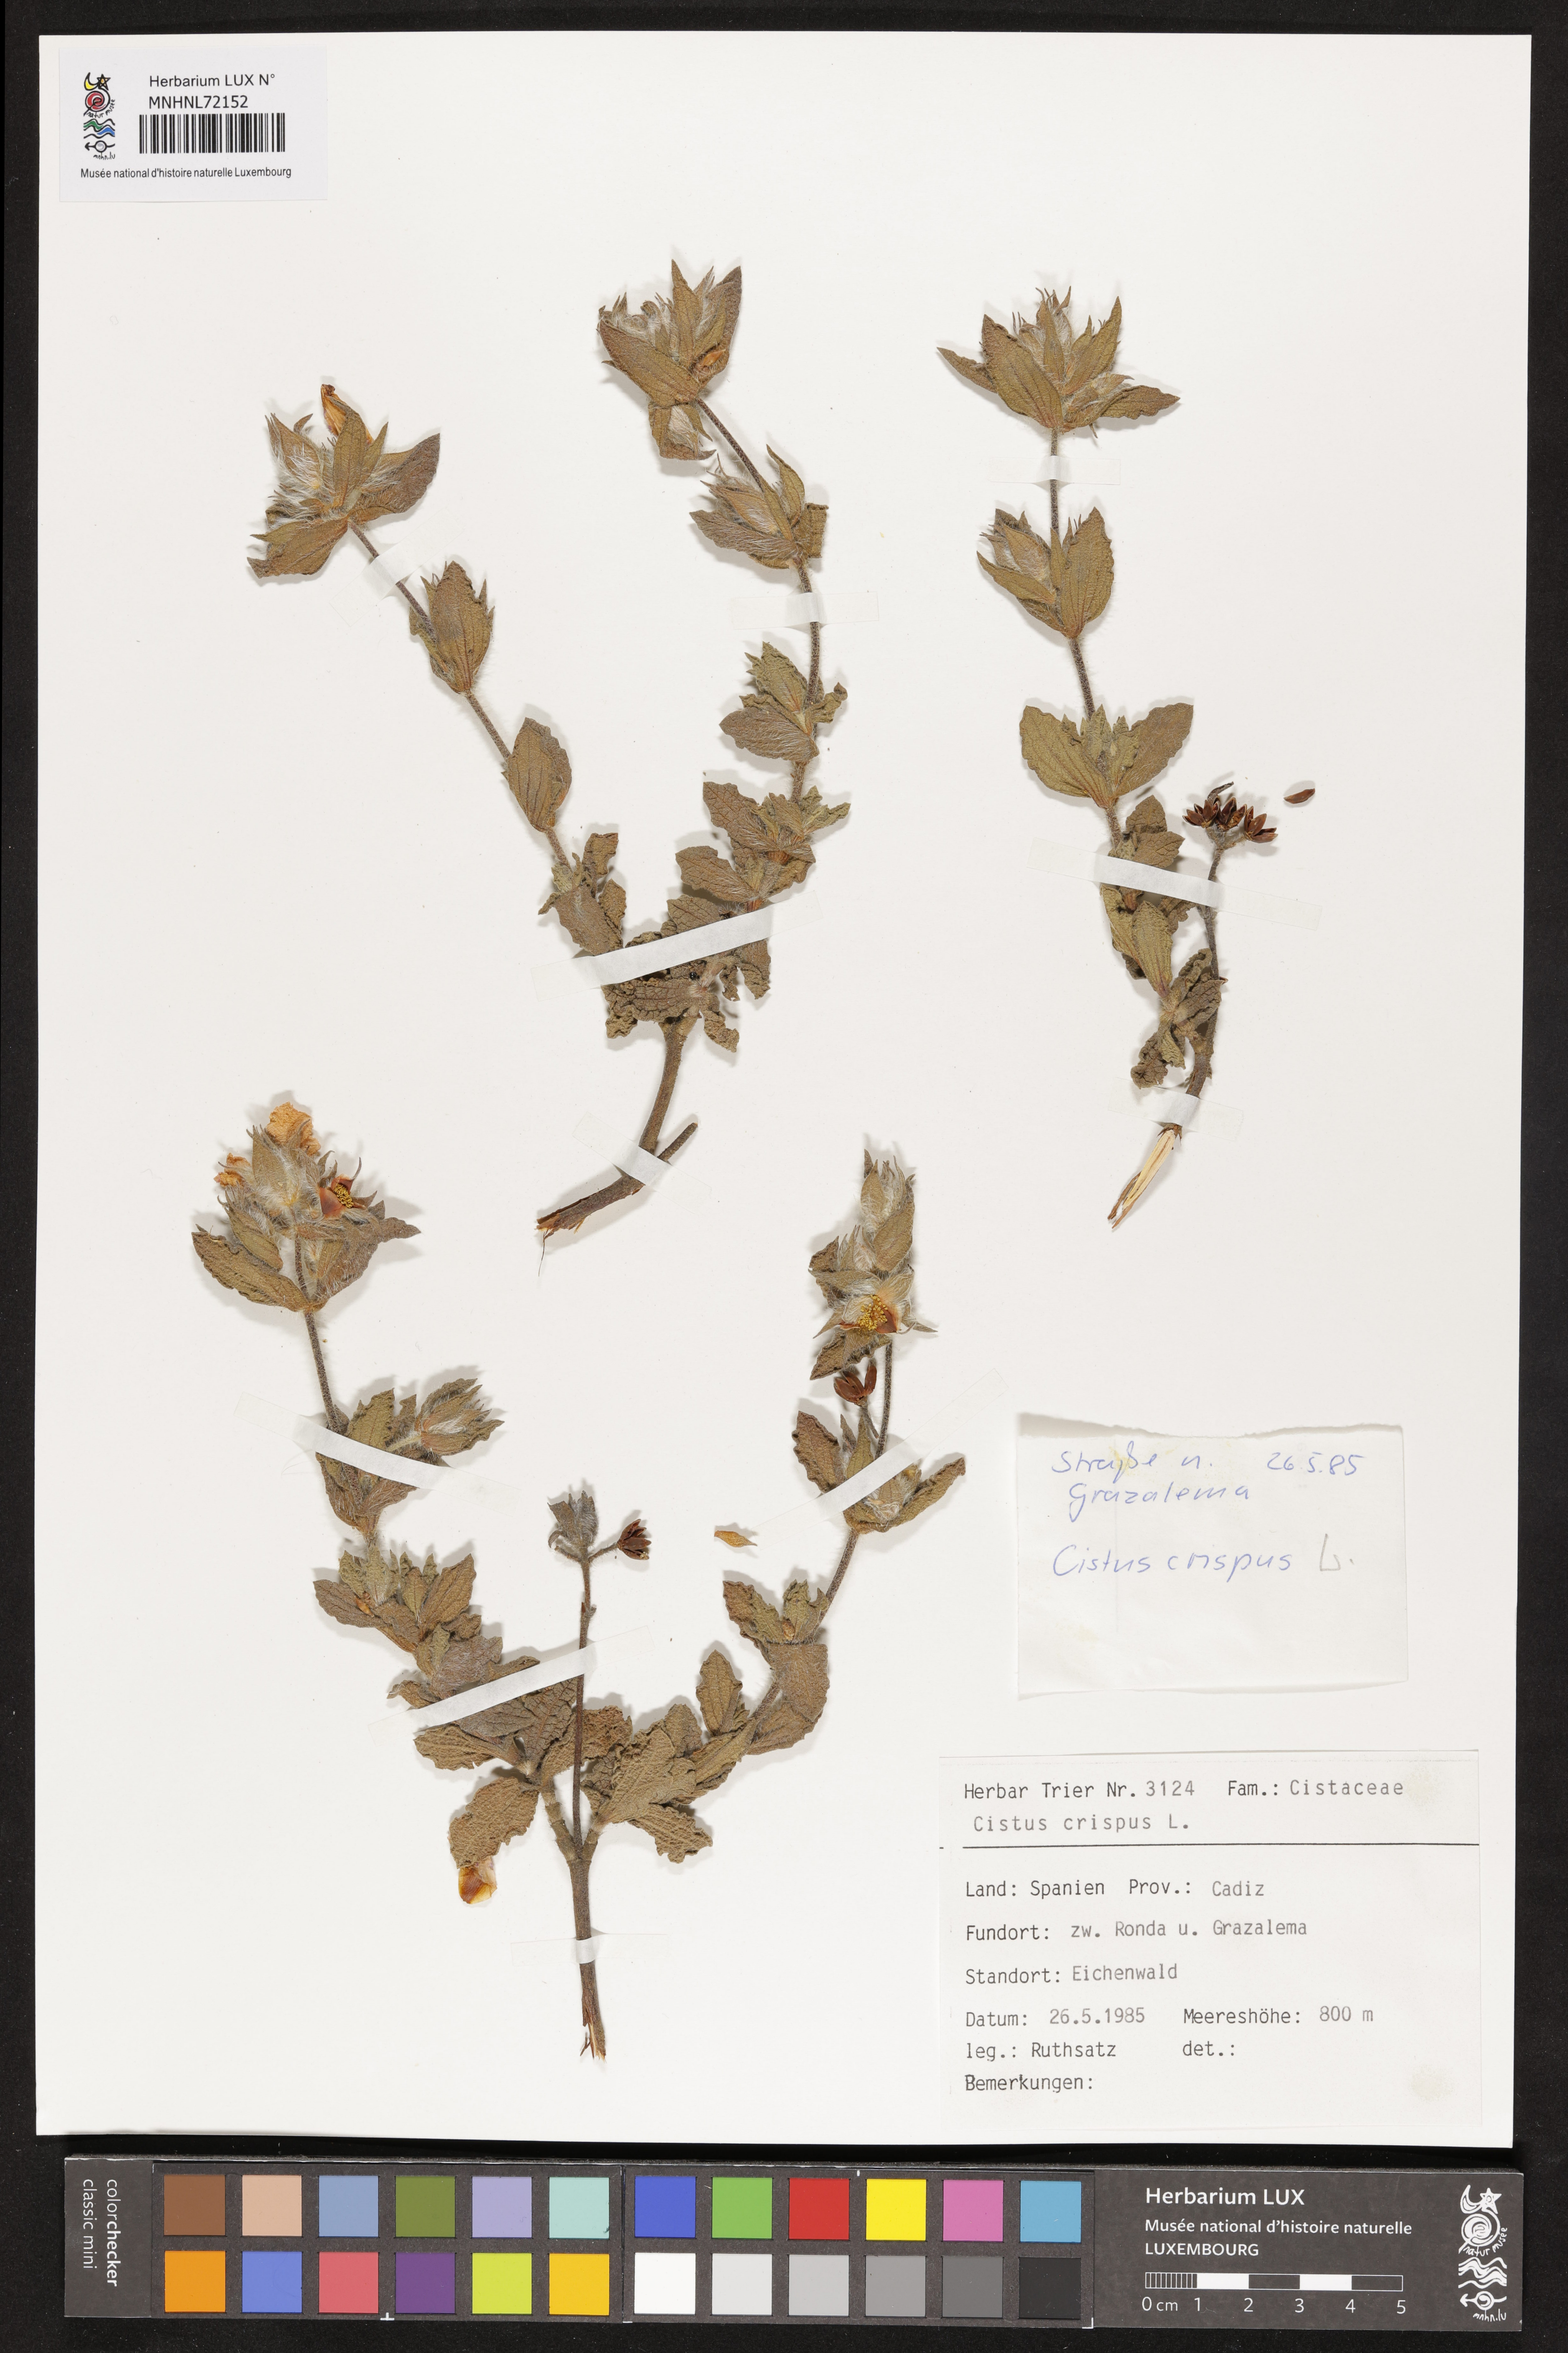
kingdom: Plantae
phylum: Tracheophyta
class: Magnoliopsida
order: Malvales
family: Cistaceae
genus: Cistus
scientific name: Cistus crispus
